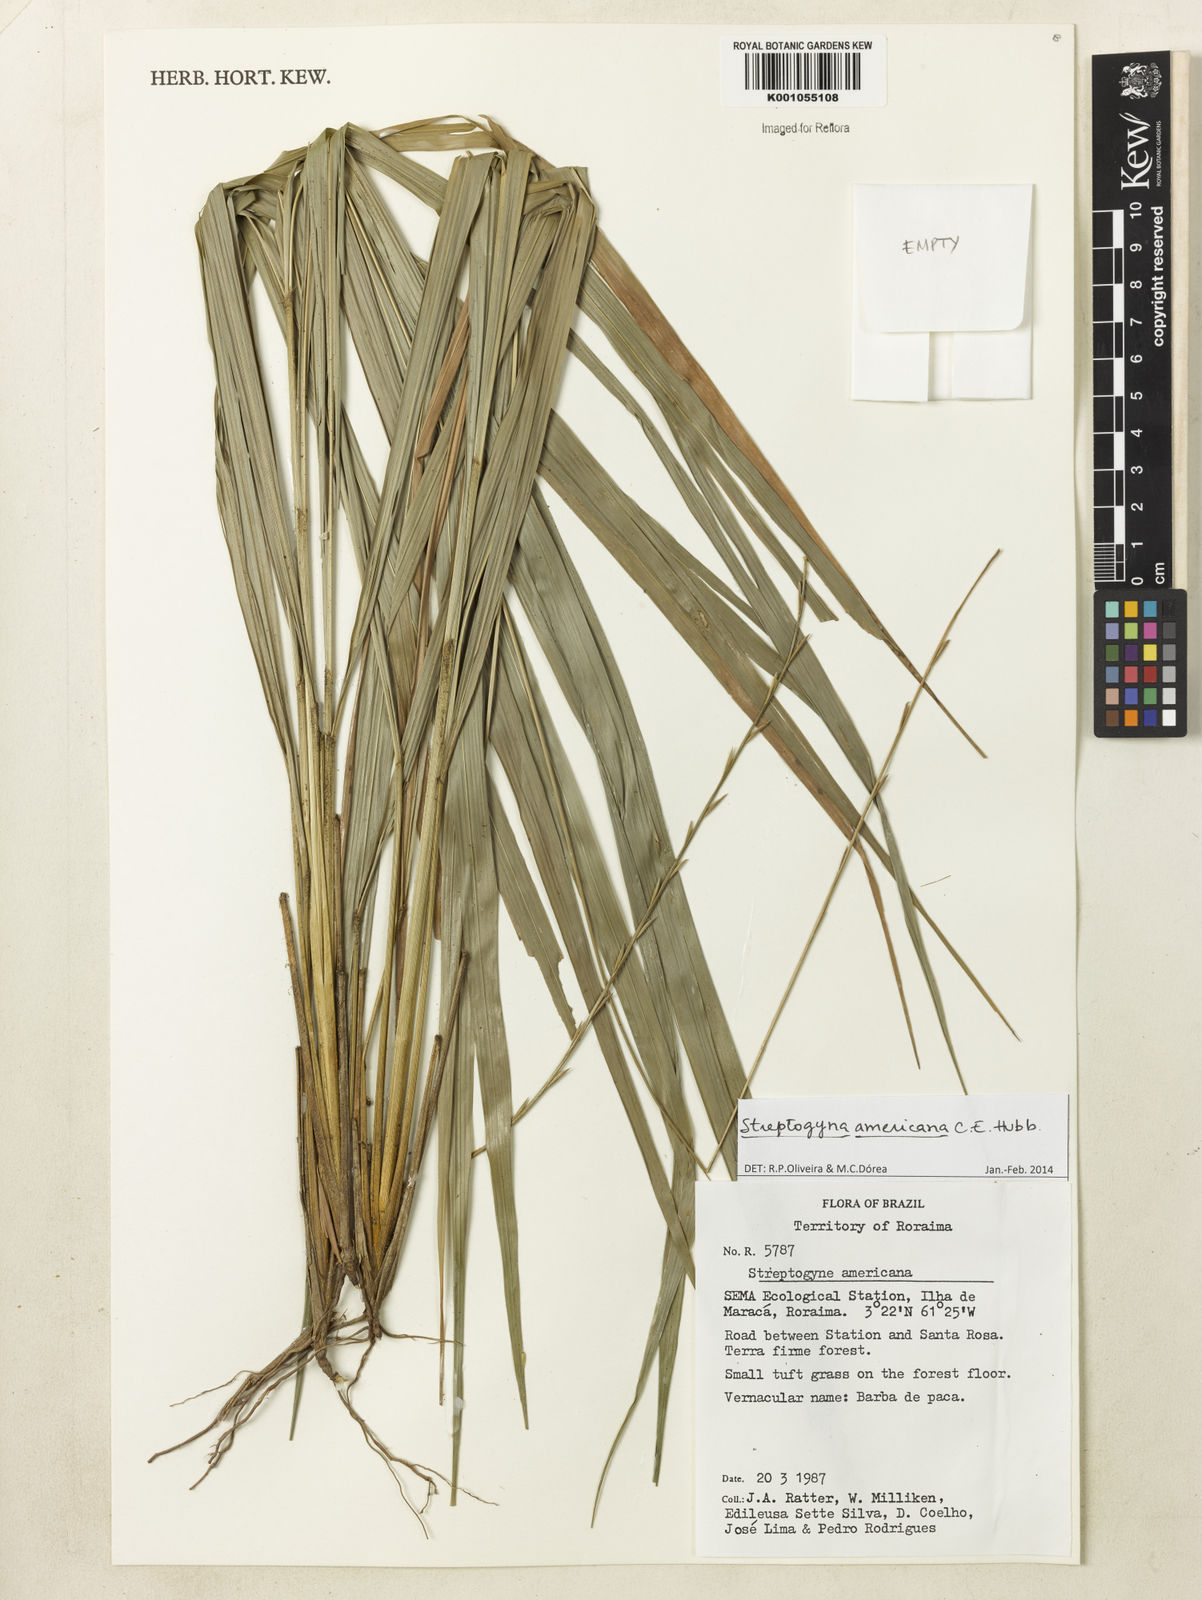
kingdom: Plantae
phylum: Tracheophyta
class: Liliopsida
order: Poales
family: Poaceae
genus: Streptogyna
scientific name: Streptogyna americana
